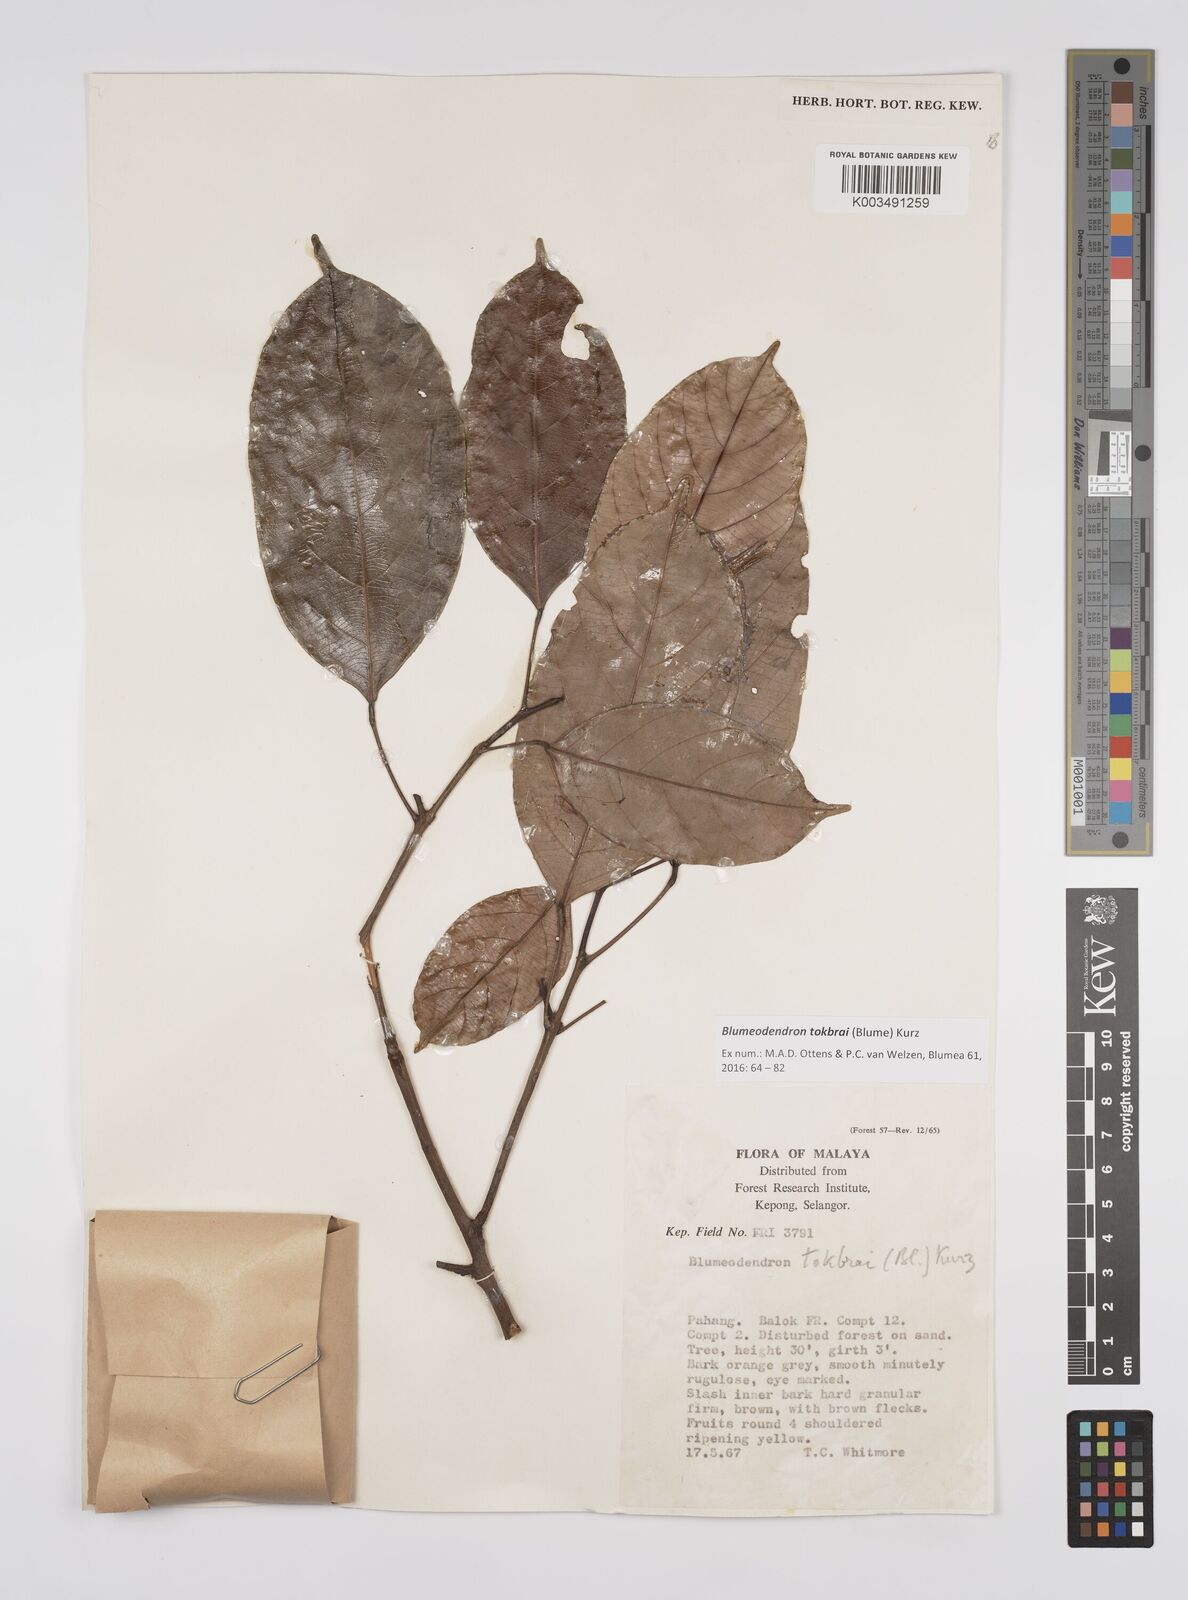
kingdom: Plantae
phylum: Tracheophyta
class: Magnoliopsida
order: Malpighiales
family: Euphorbiaceae
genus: Blumeodendron
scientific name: Blumeodendron tokbrai
